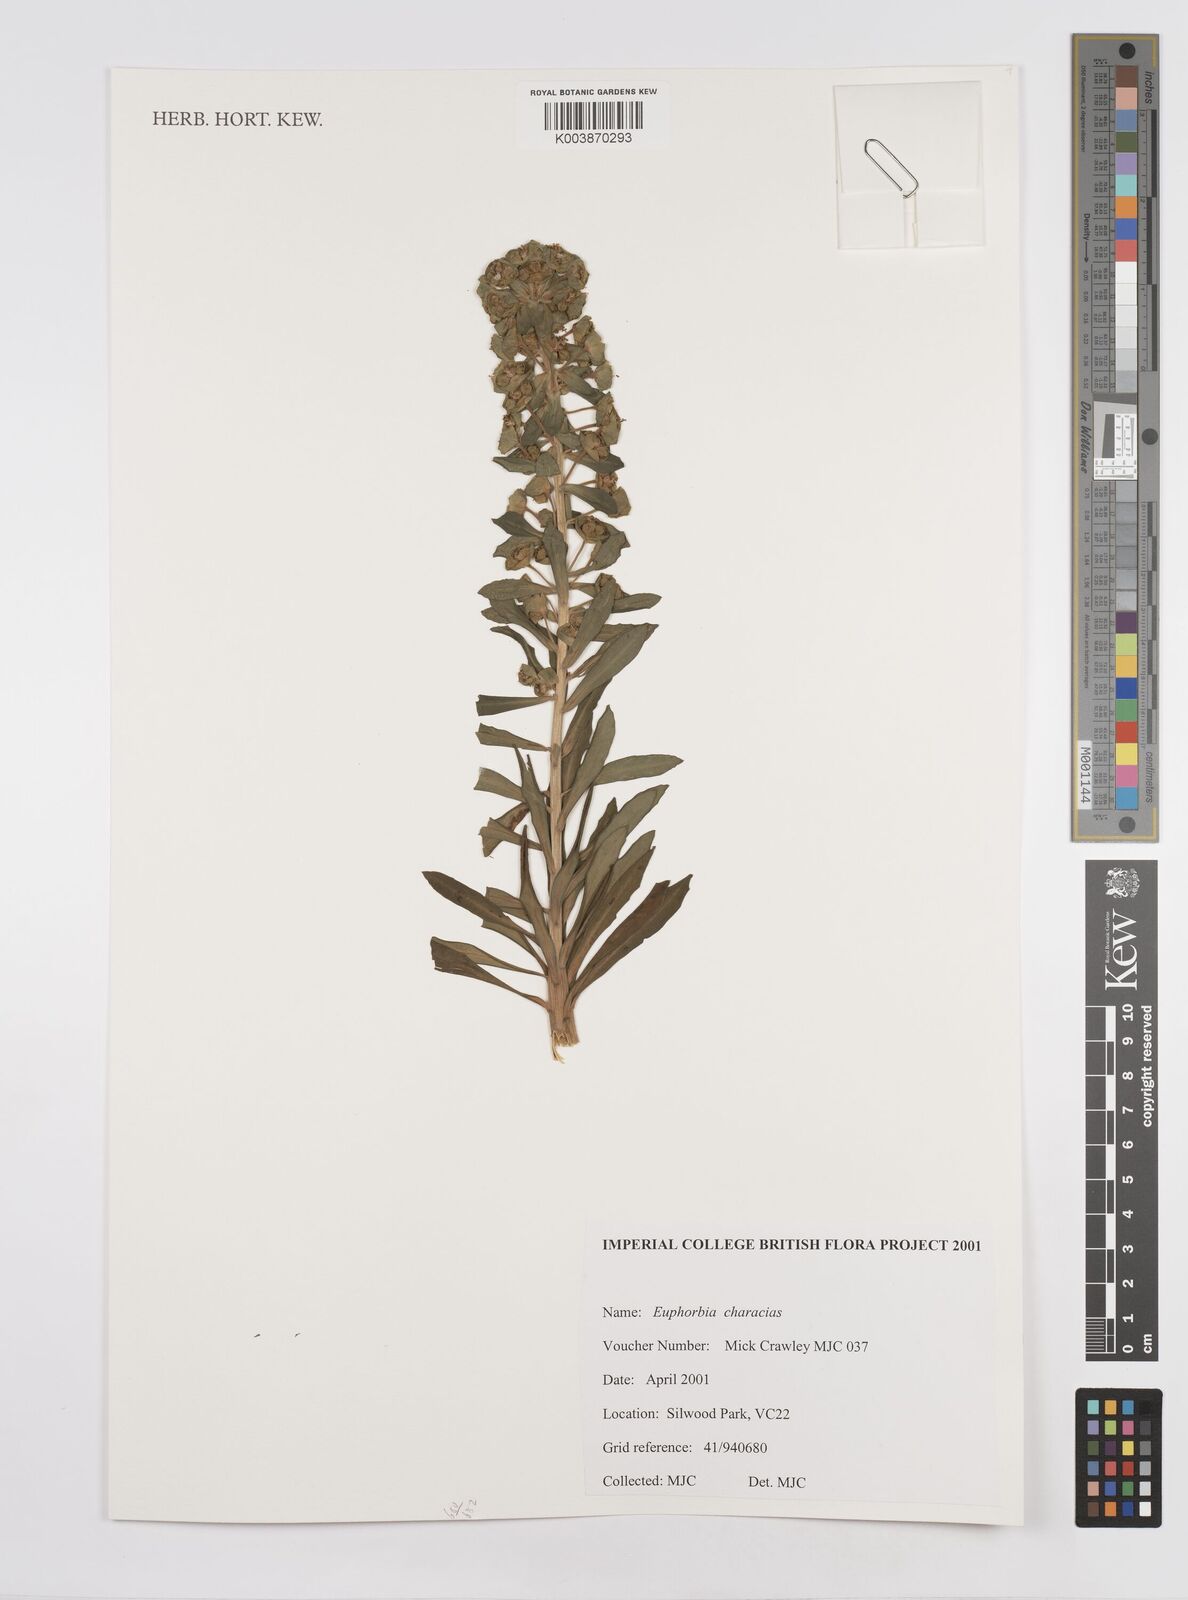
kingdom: Plantae
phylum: Tracheophyta
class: Magnoliopsida
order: Malpighiales
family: Euphorbiaceae
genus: Euphorbia
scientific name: Euphorbia characias
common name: Mediterranean spurge
